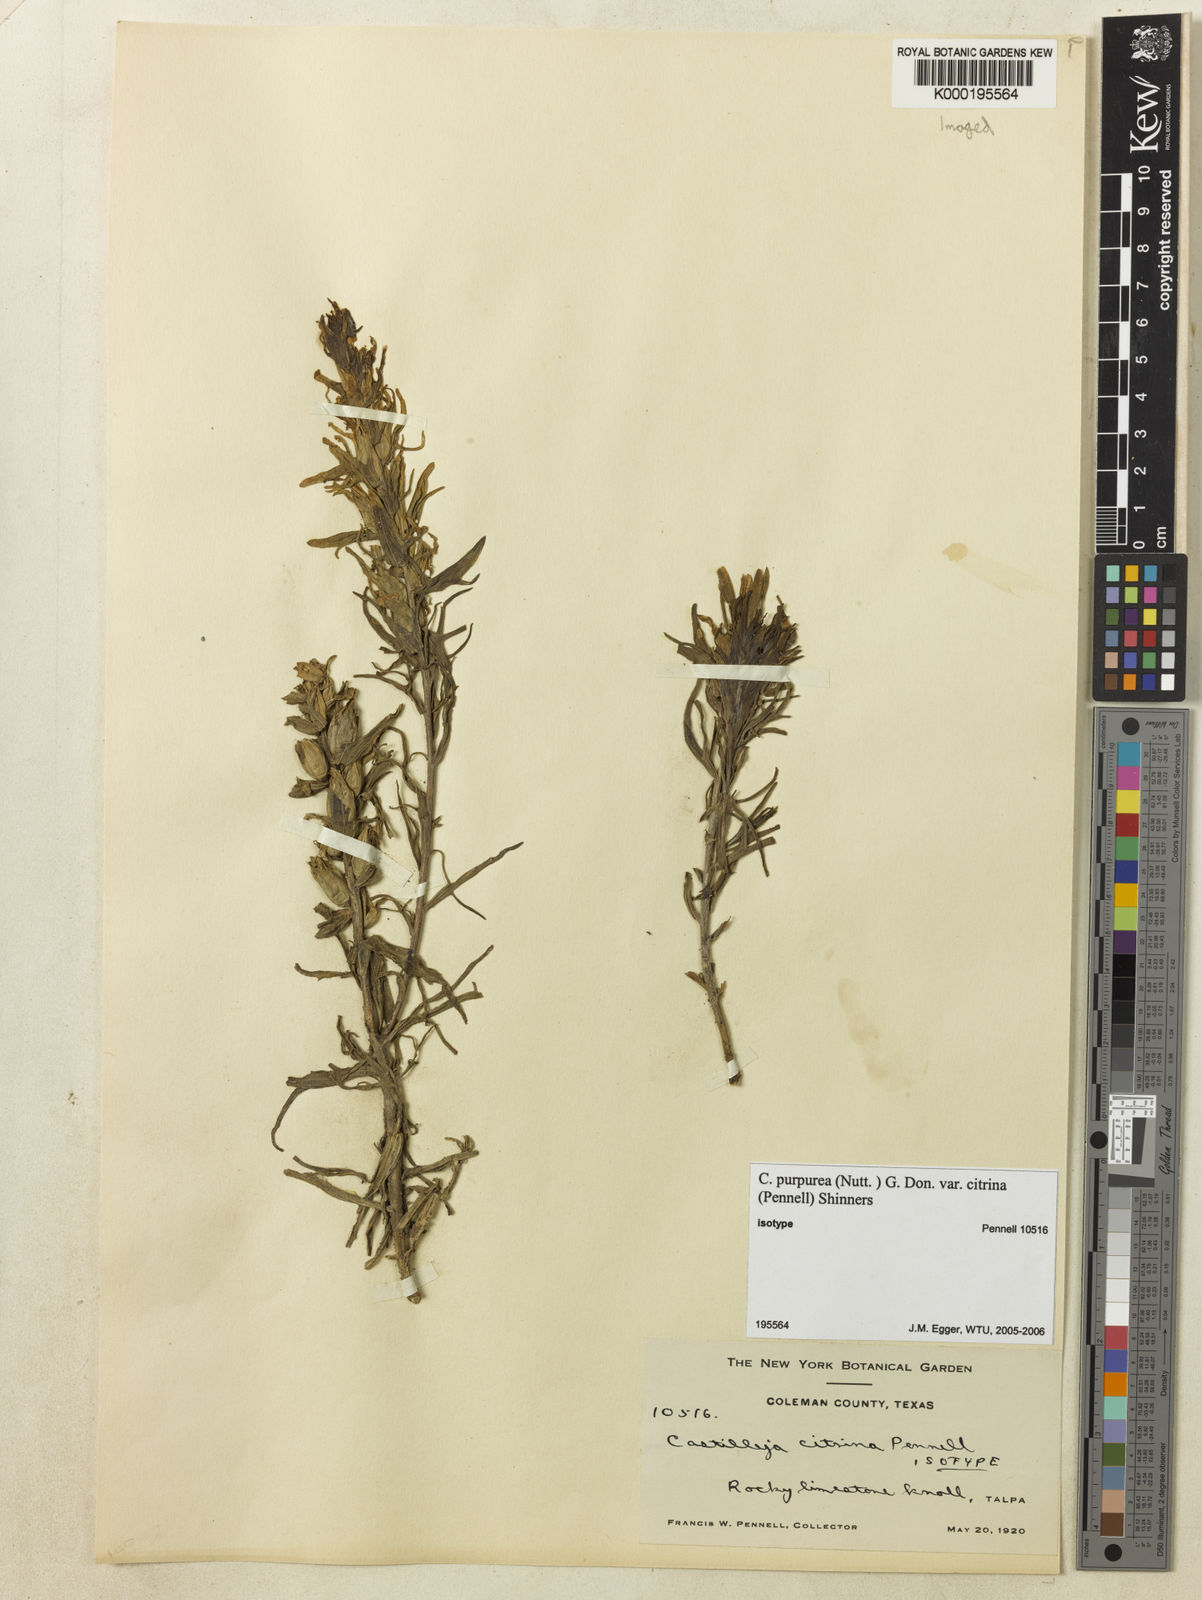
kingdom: Plantae
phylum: Tracheophyta
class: Magnoliopsida
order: Lamiales
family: Orobanchaceae
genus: Castilleja
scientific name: Castilleja purpurea
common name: Plains paintbrush
